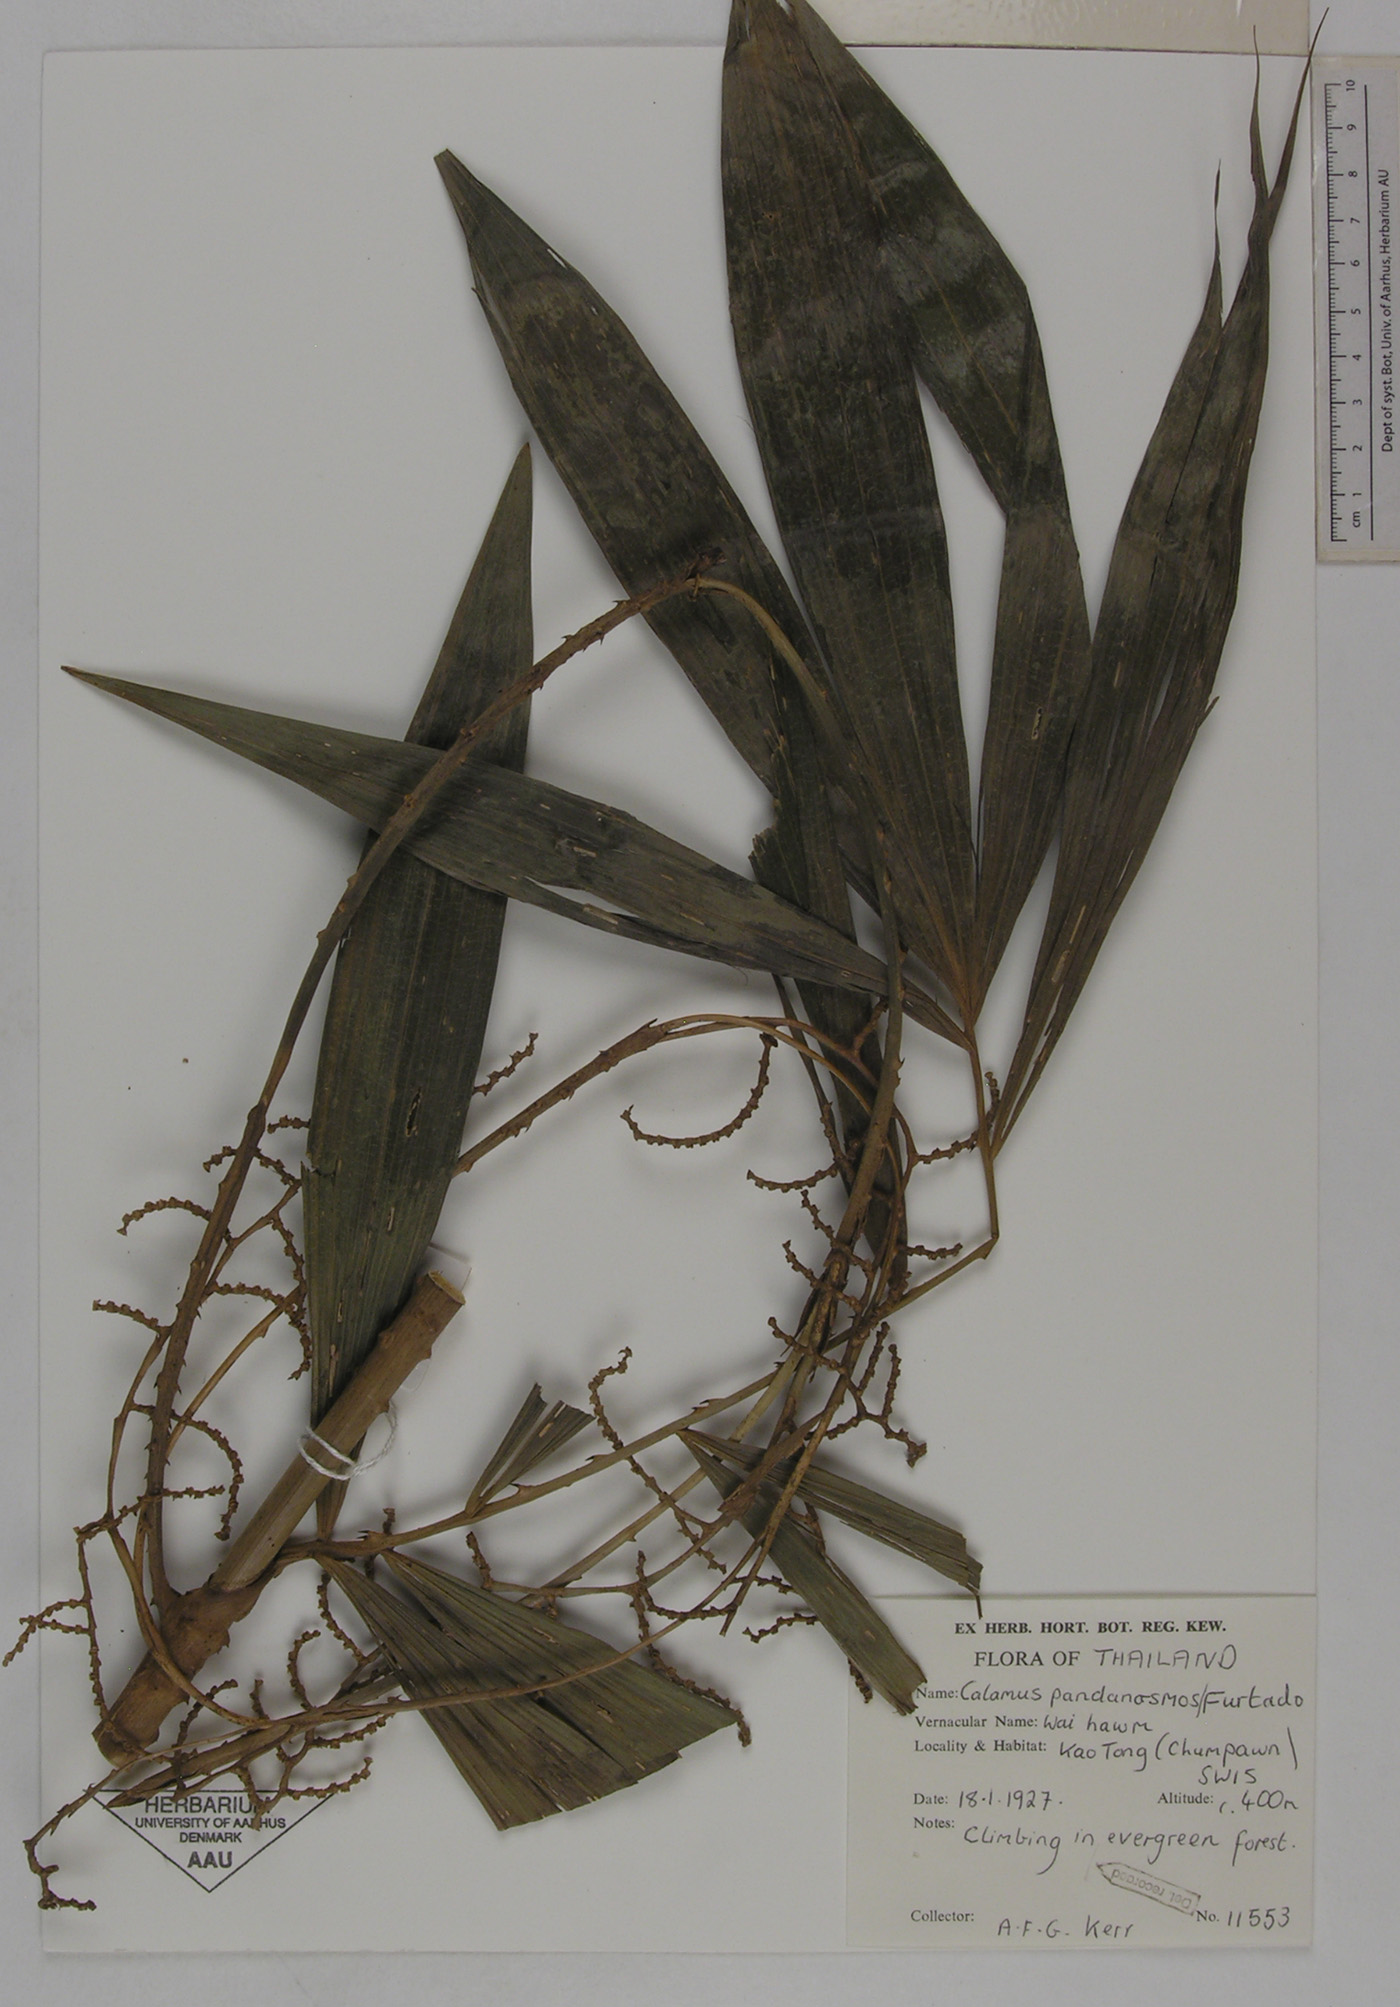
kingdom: Plantae
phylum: Tracheophyta
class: Liliopsida
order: Arecales
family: Arecaceae
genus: Calamus
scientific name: Calamus pandanosmus
